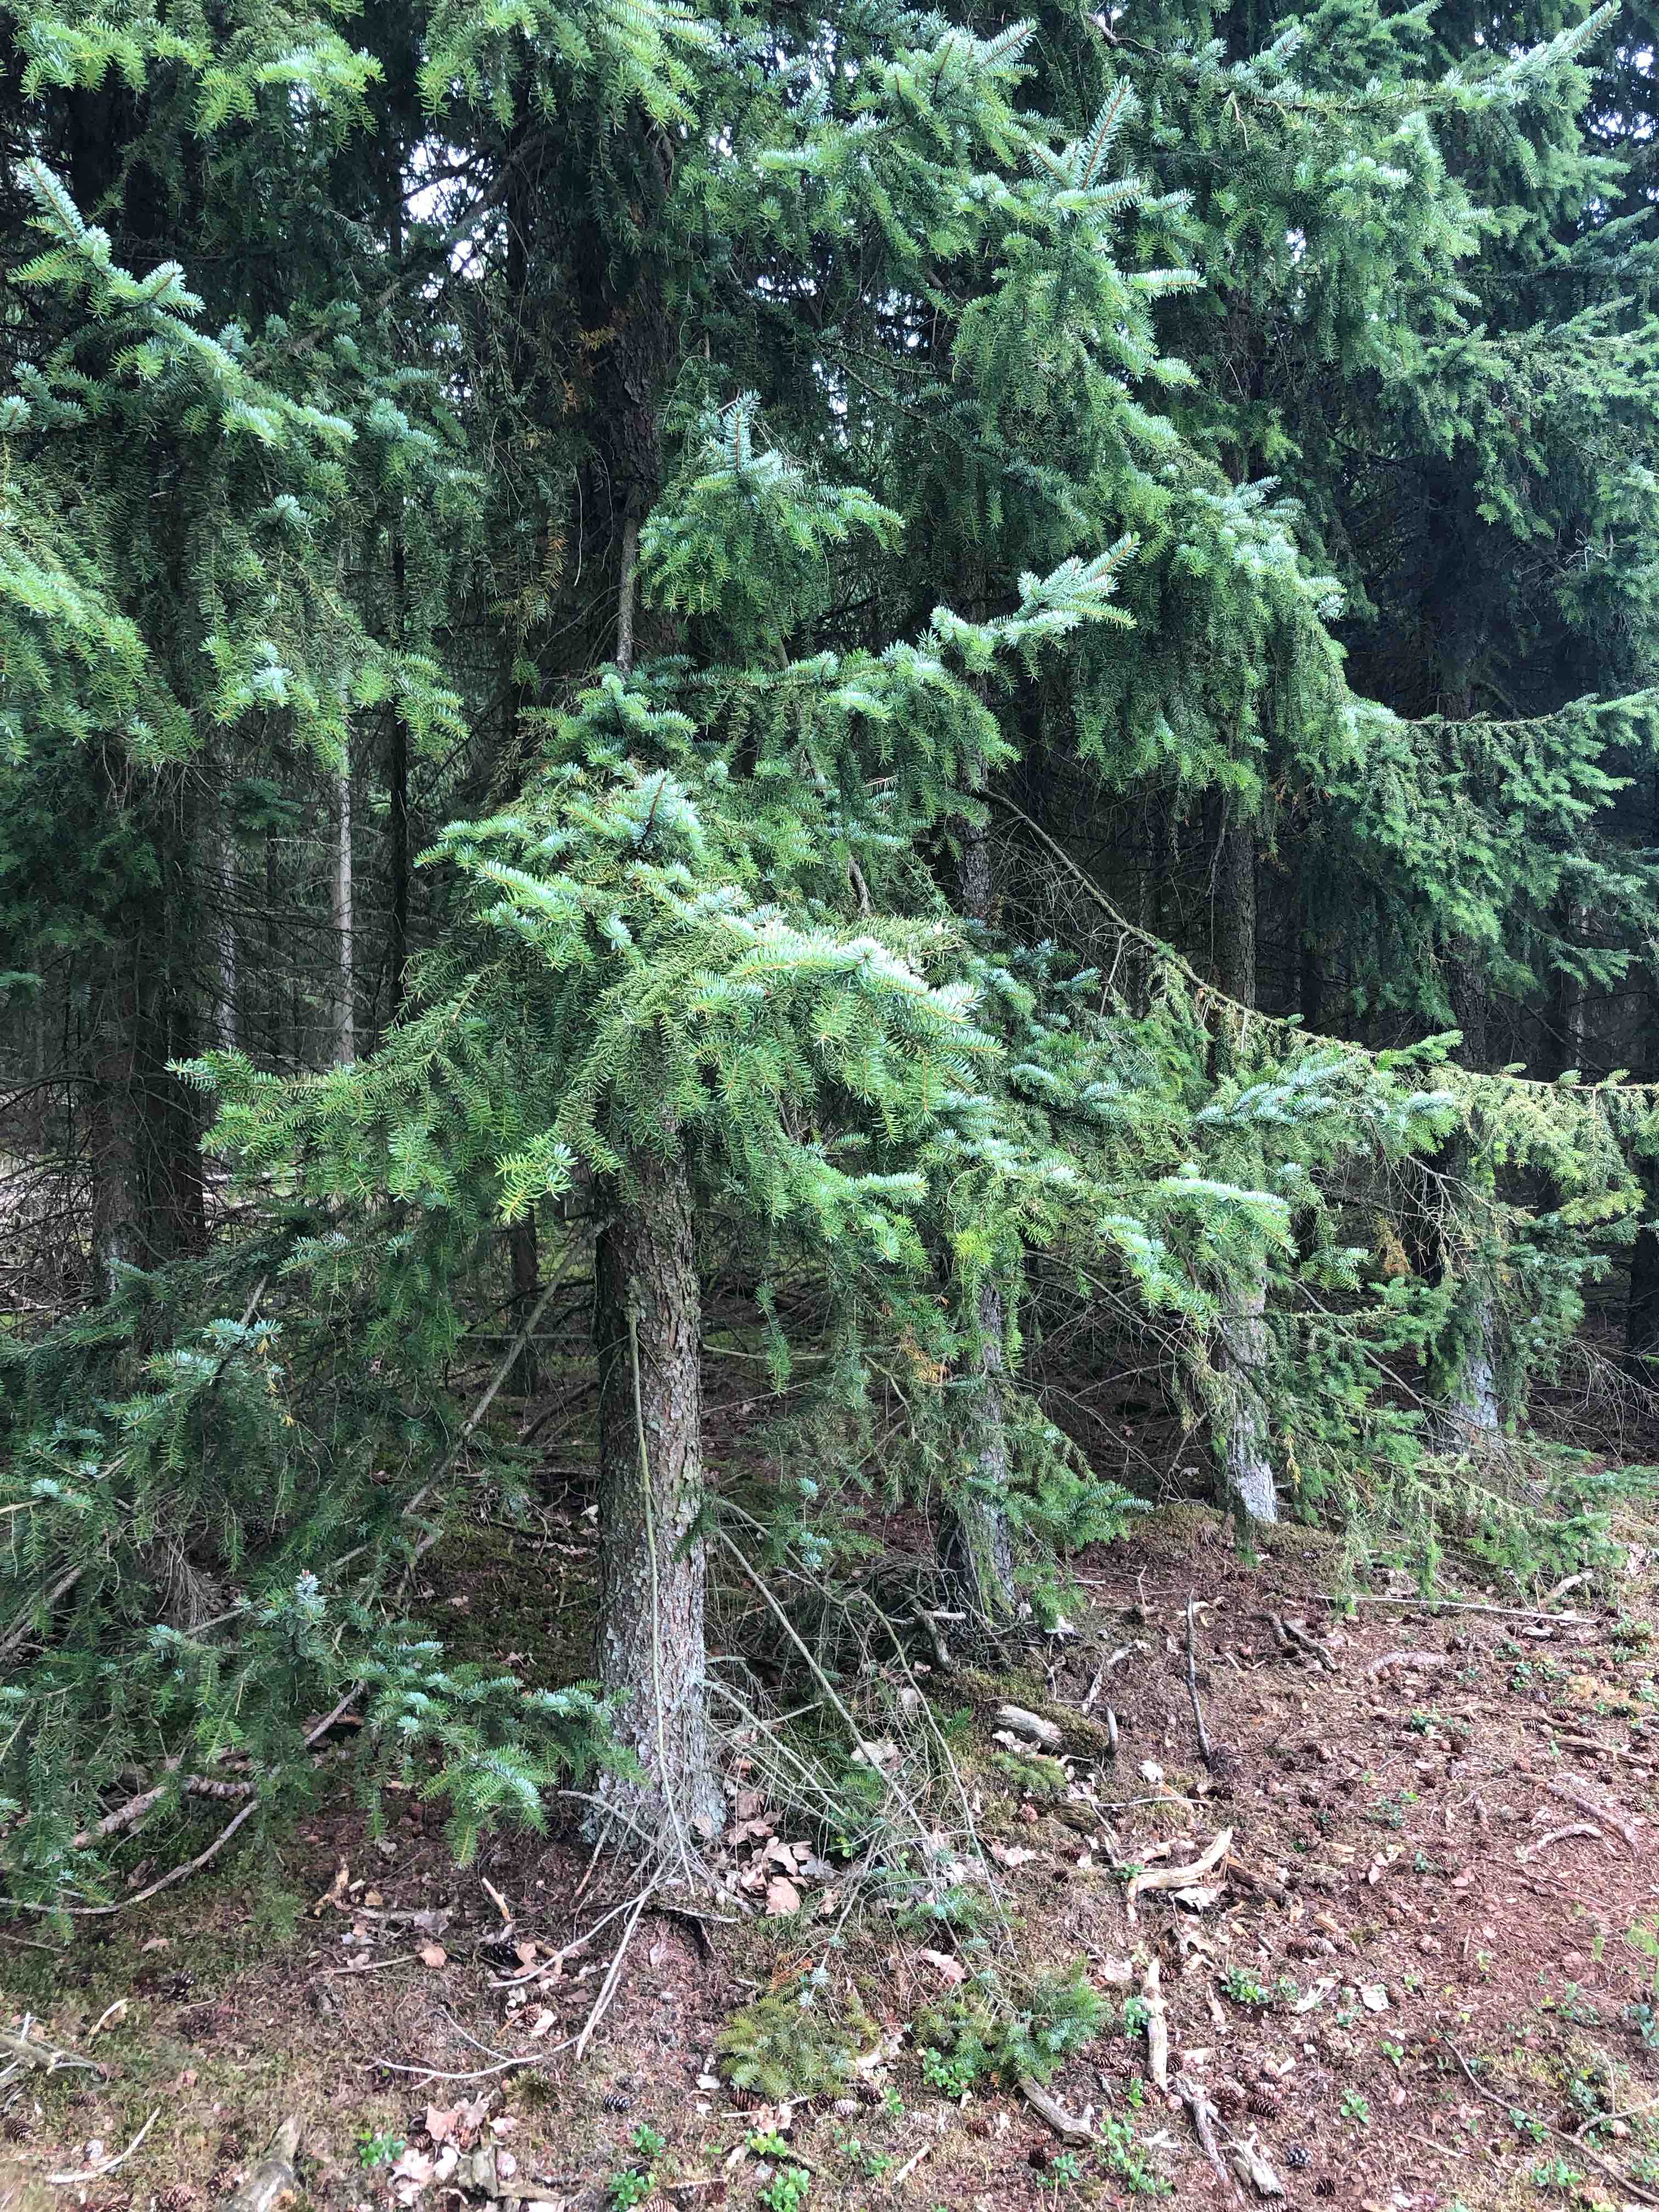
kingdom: Fungi
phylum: Basidiomycota
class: Agaricomycetes
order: Boletales
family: Tapinellaceae
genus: Tapinella
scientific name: Tapinella atrotomentosa
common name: sortfiltet viftesvamp
